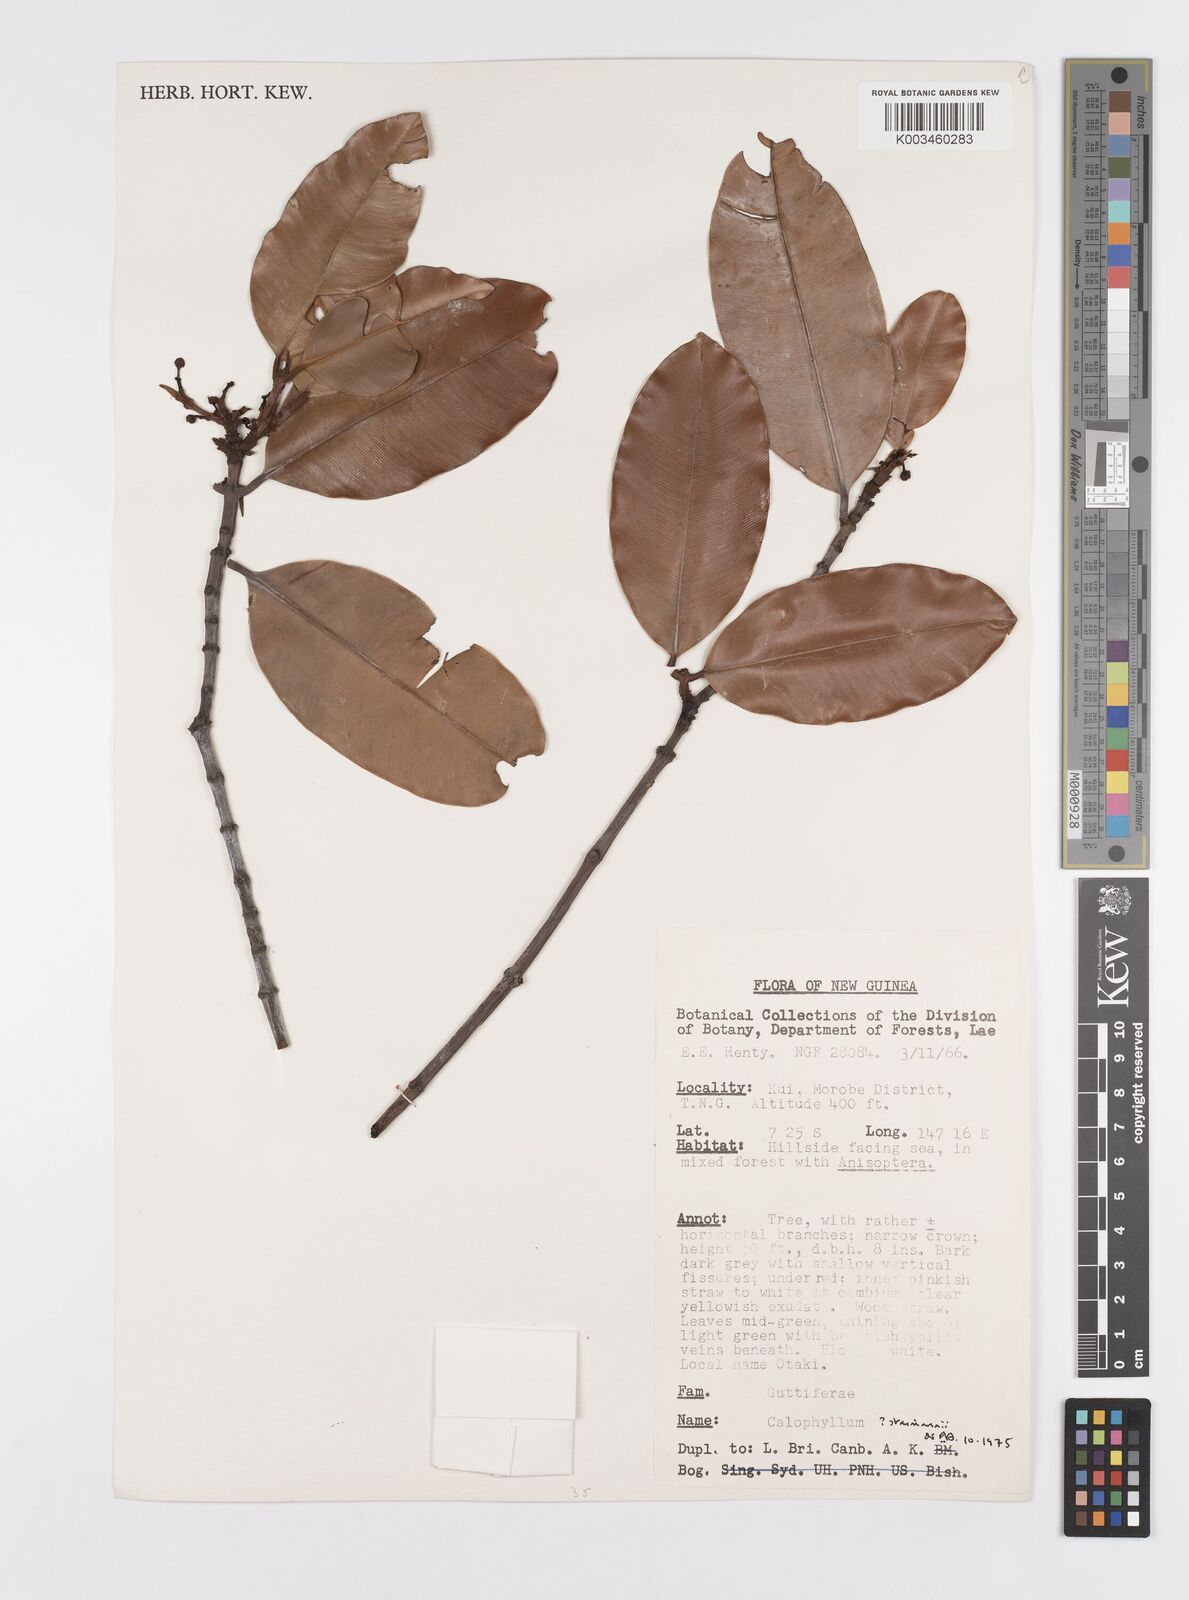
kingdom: Plantae
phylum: Tracheophyta
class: Magnoliopsida
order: Malpighiales
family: Calophyllaceae
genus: Calophyllum
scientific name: Calophyllum streimannii
